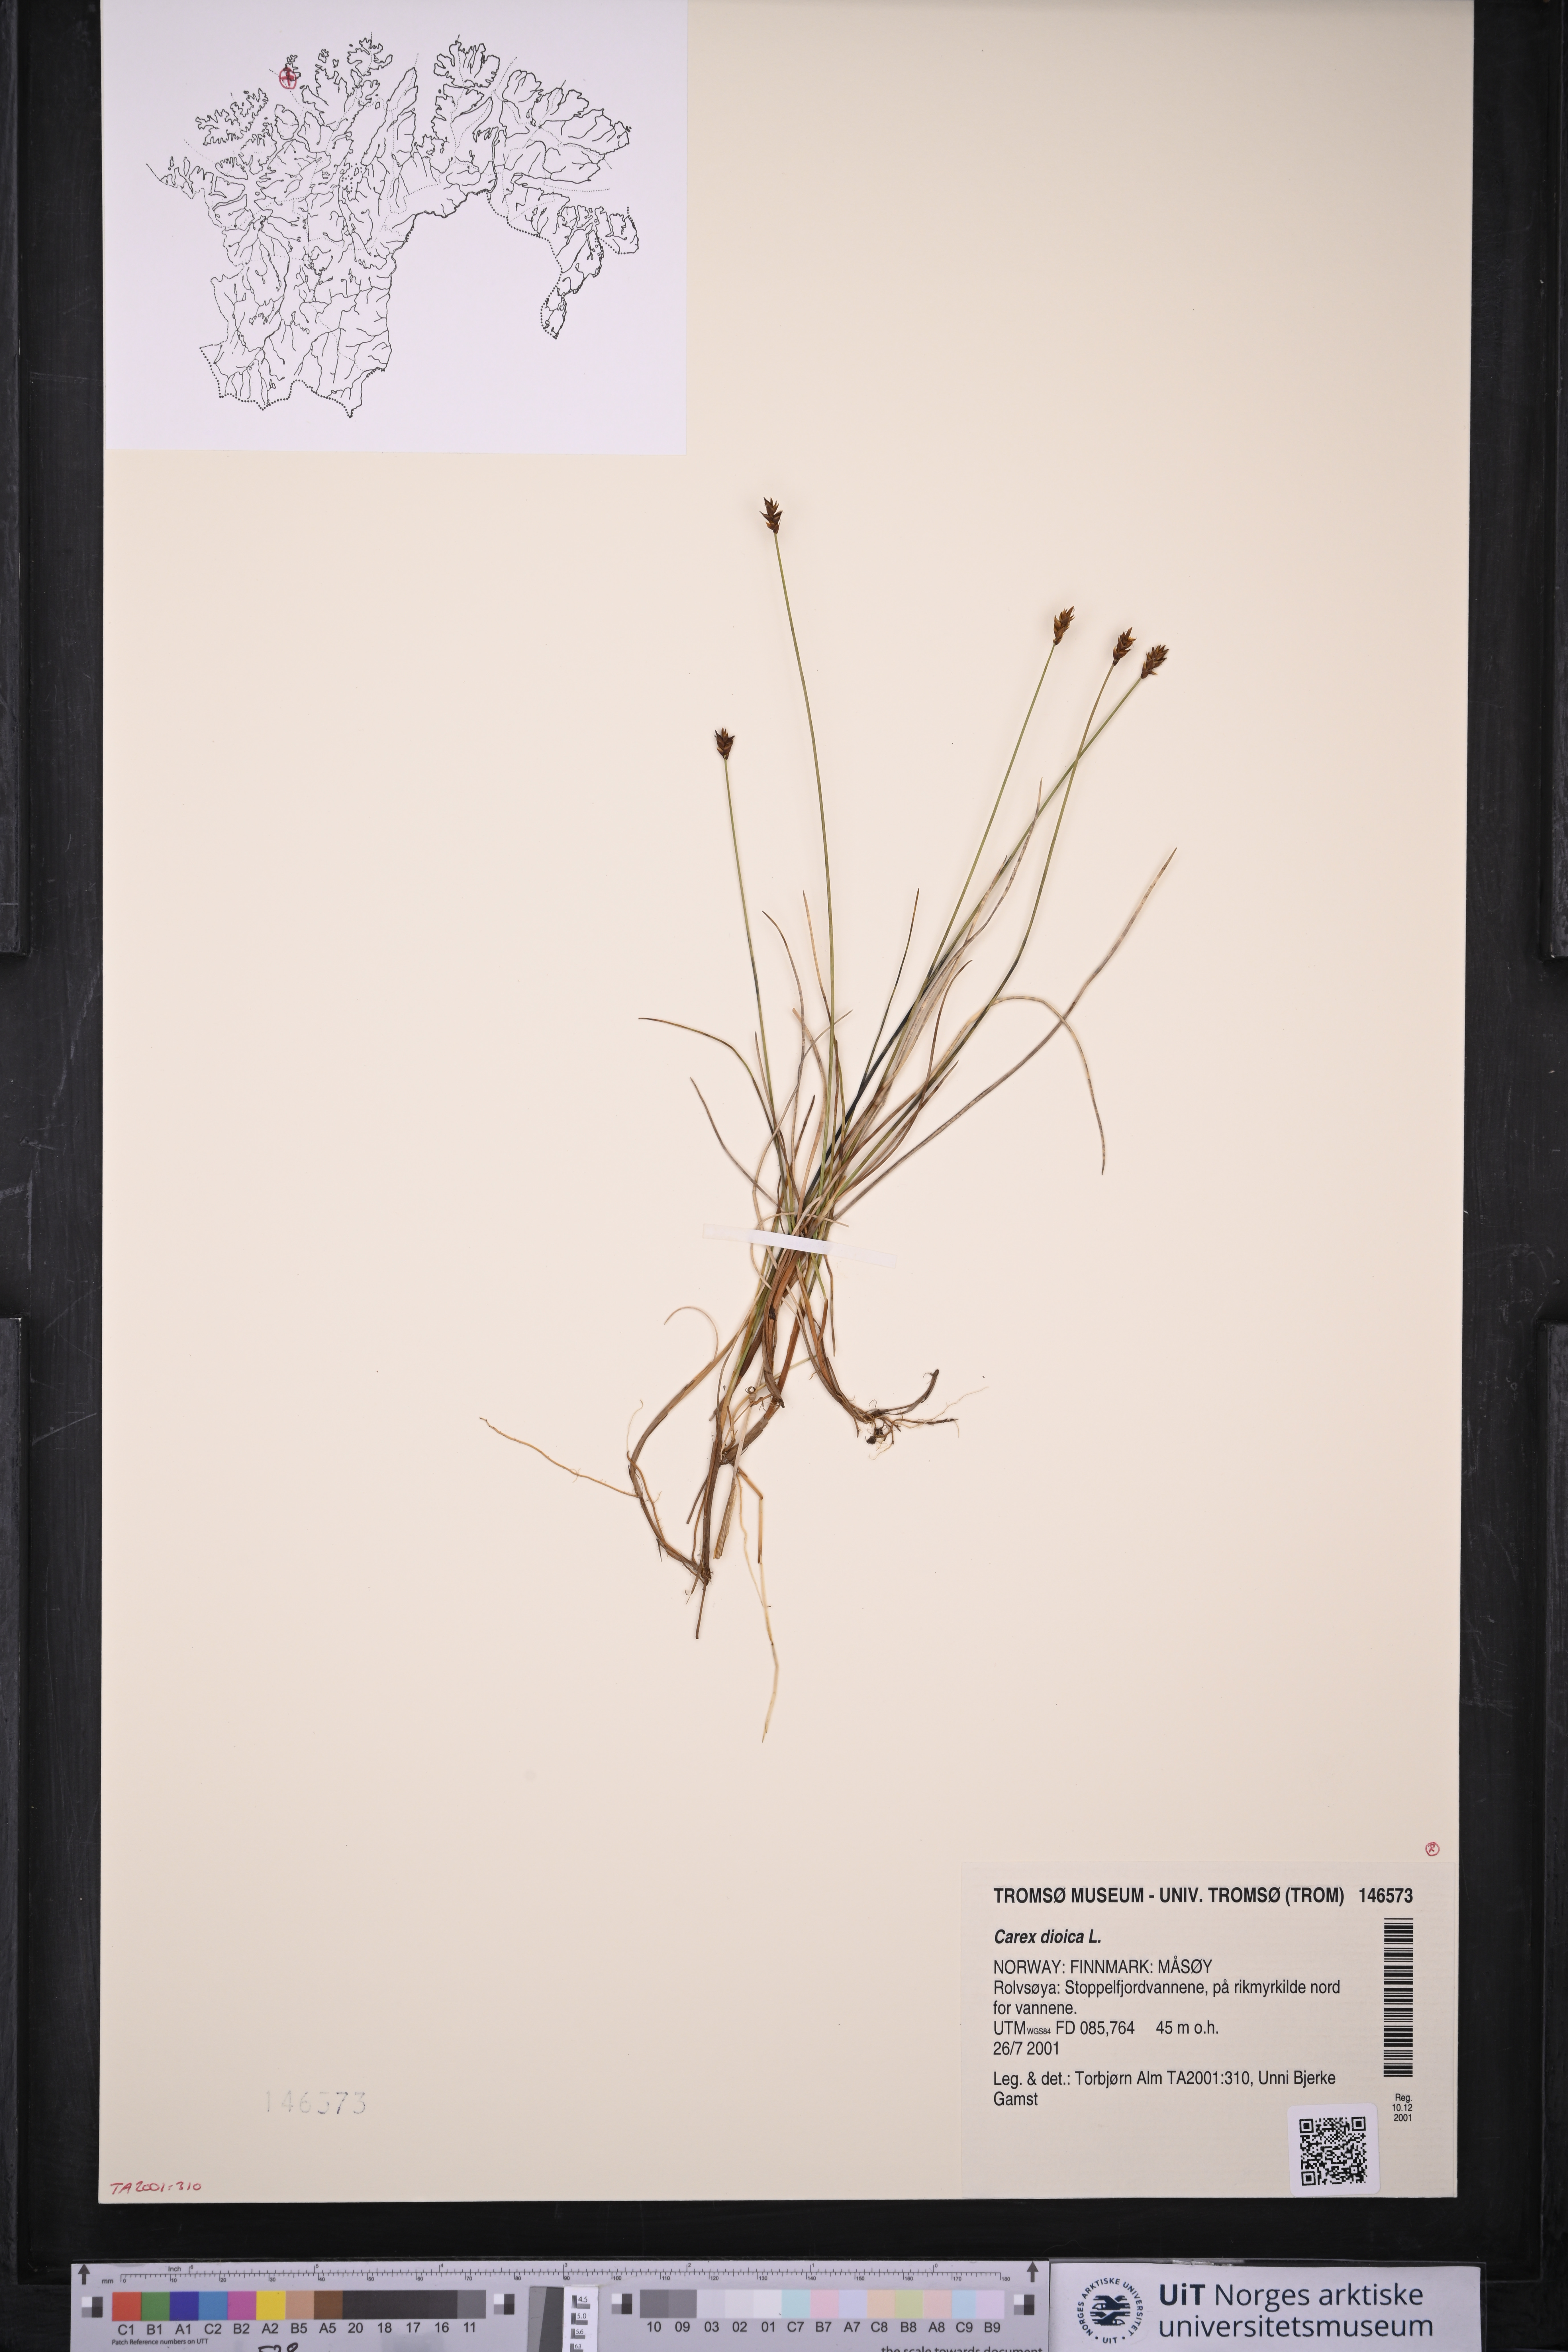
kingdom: Plantae
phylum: Tracheophyta
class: Liliopsida
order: Poales
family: Cyperaceae
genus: Carex
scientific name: Carex dioica
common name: Dioecious sedge
